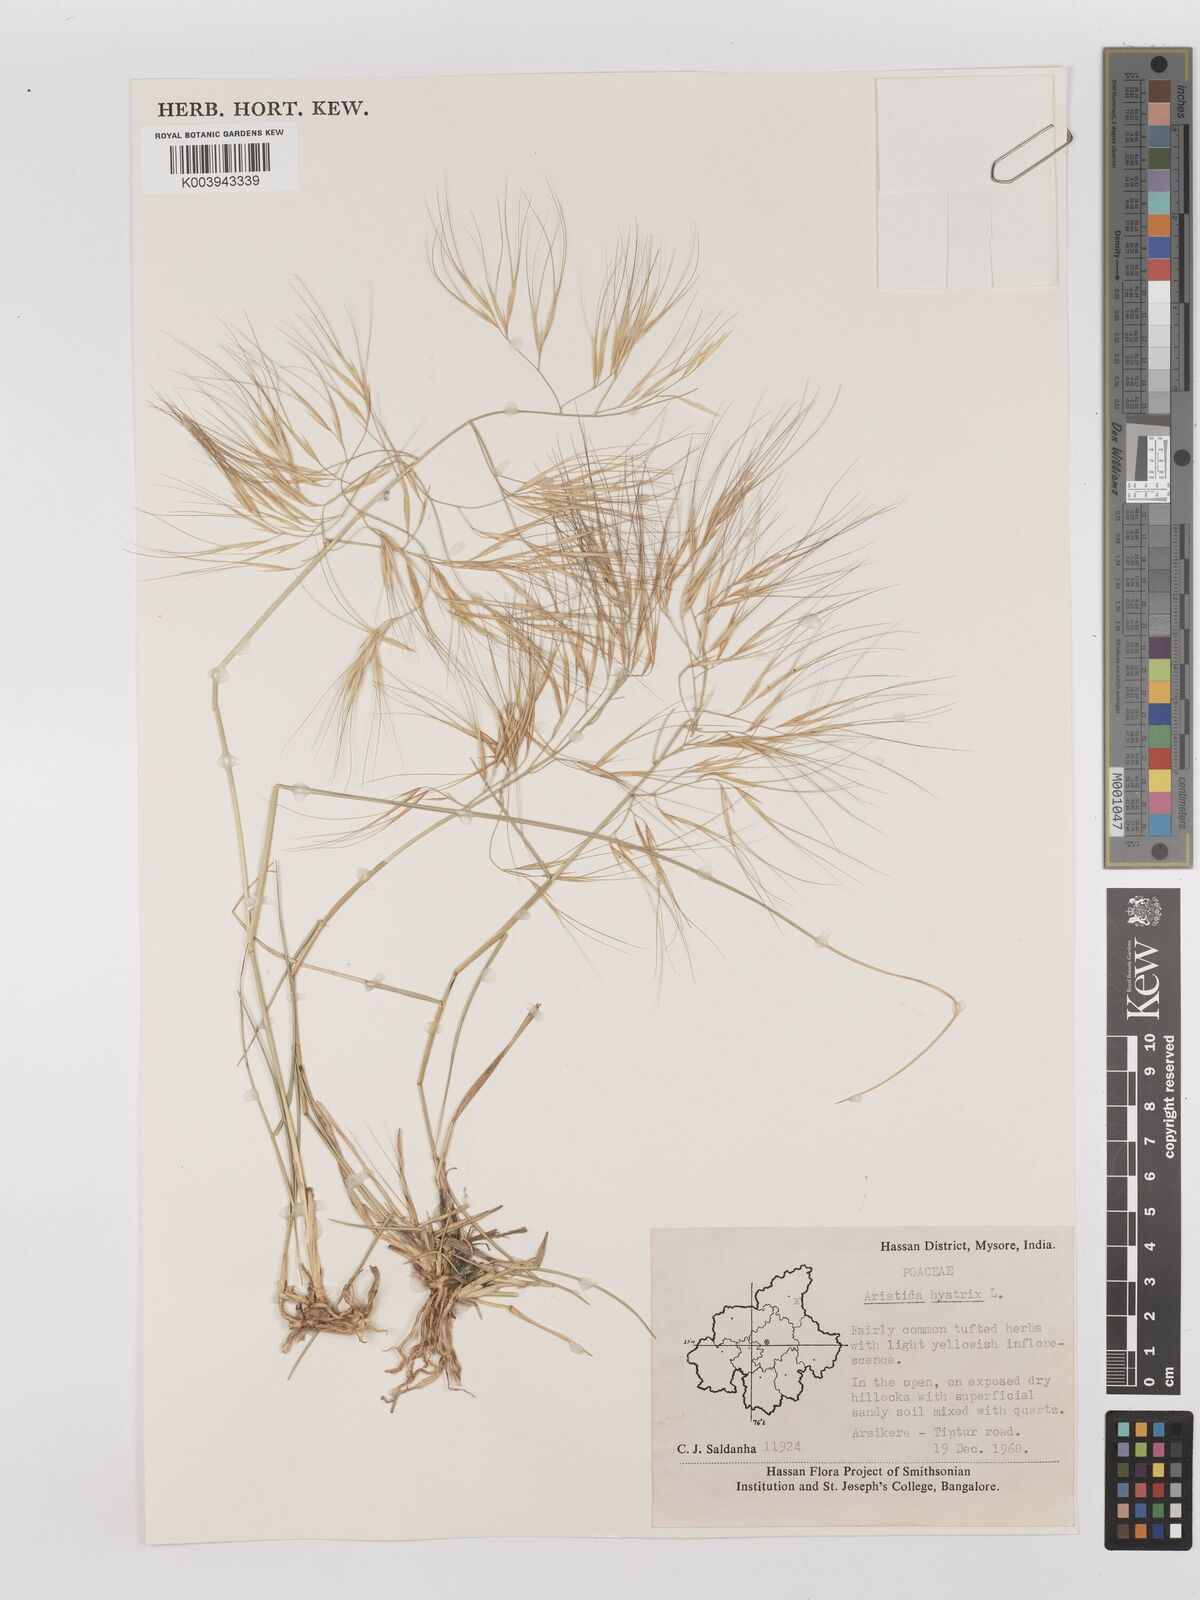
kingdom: Plantae
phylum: Tracheophyta
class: Liliopsida
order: Poales
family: Poaceae
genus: Aristida
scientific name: Aristida hystrix
